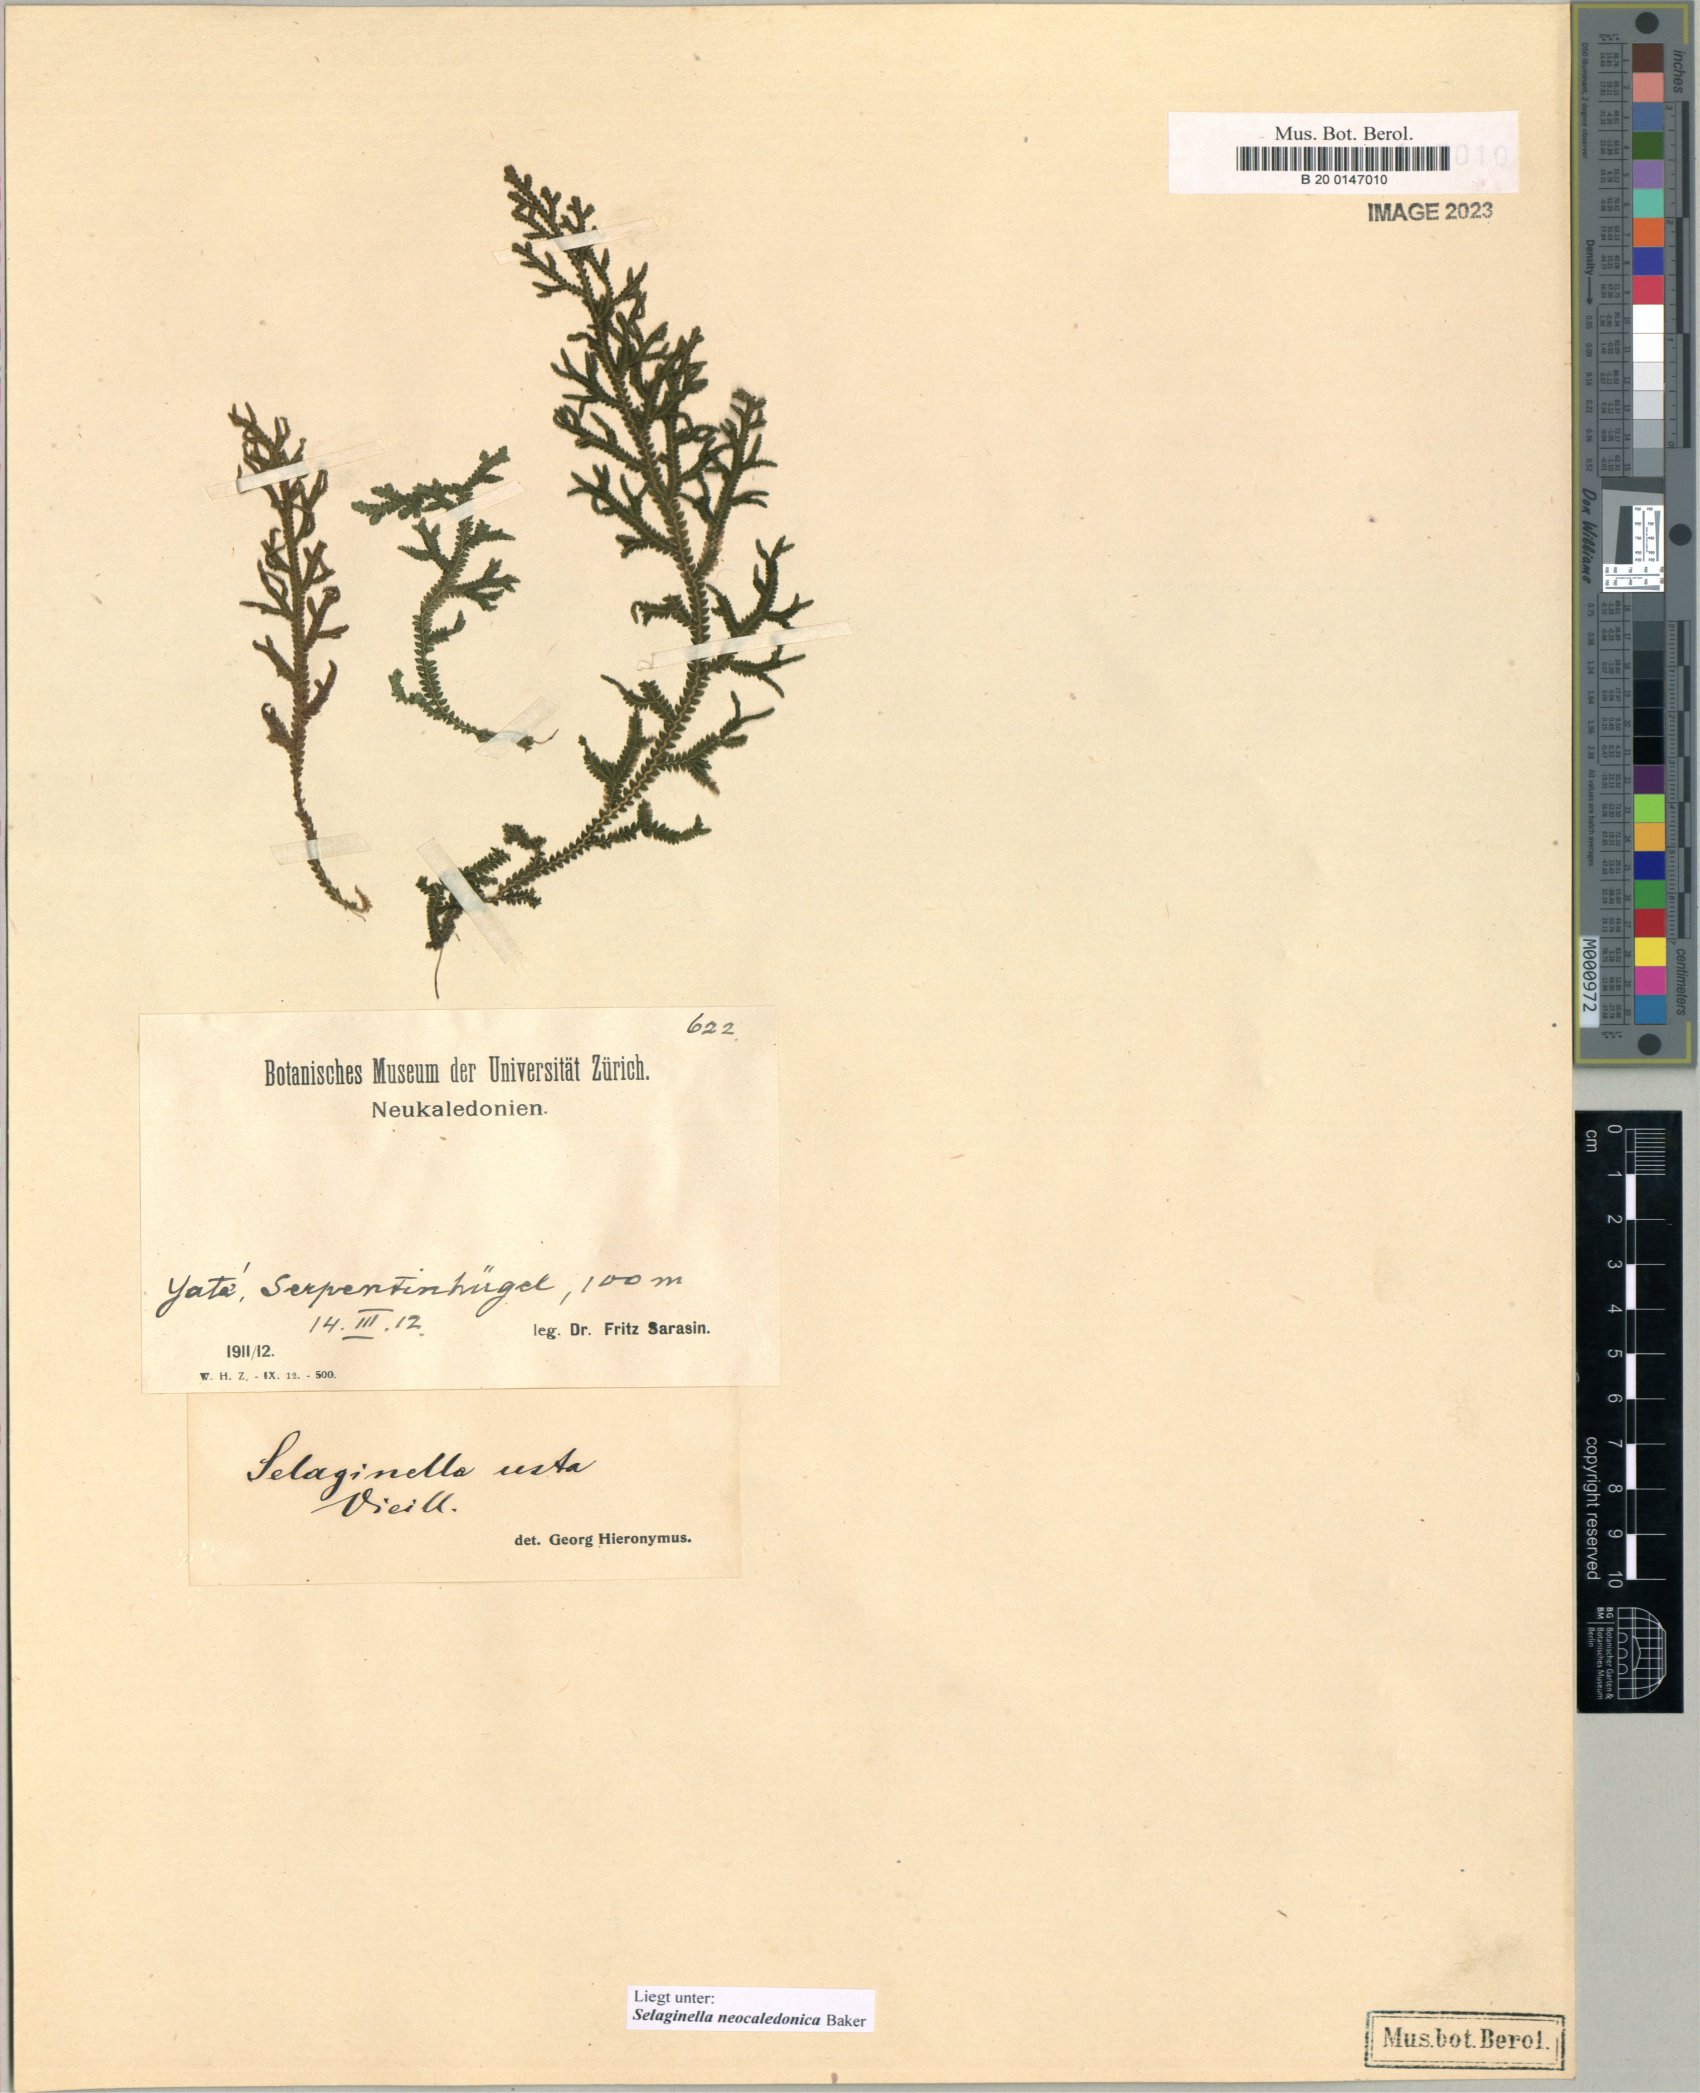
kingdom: Plantae
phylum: Tracheophyta
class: Lycopodiopsida
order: Selaginellales
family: Selaginellaceae
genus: Selaginella
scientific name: Selaginella neocaledonica
